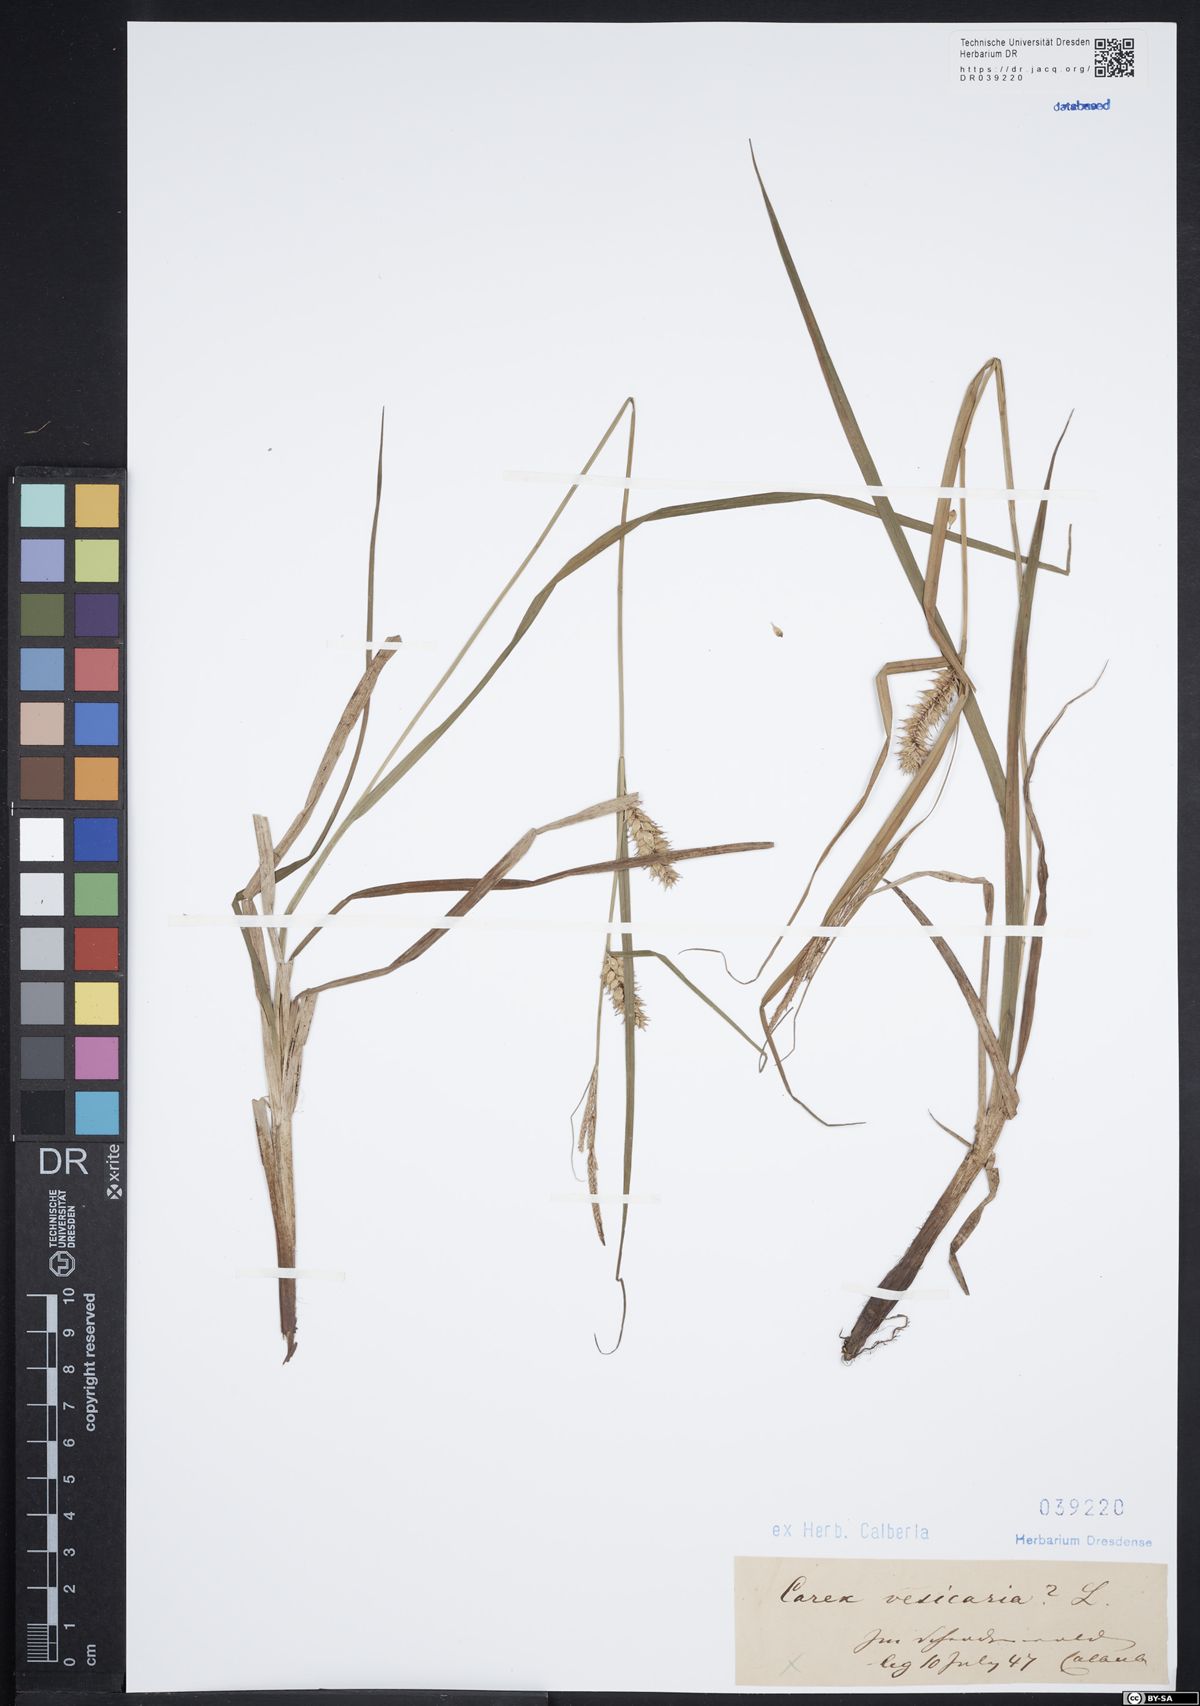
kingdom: Plantae
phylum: Tracheophyta
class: Liliopsida
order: Poales
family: Cyperaceae
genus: Carex
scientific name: Carex vesicaria
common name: Bladder-sedge
